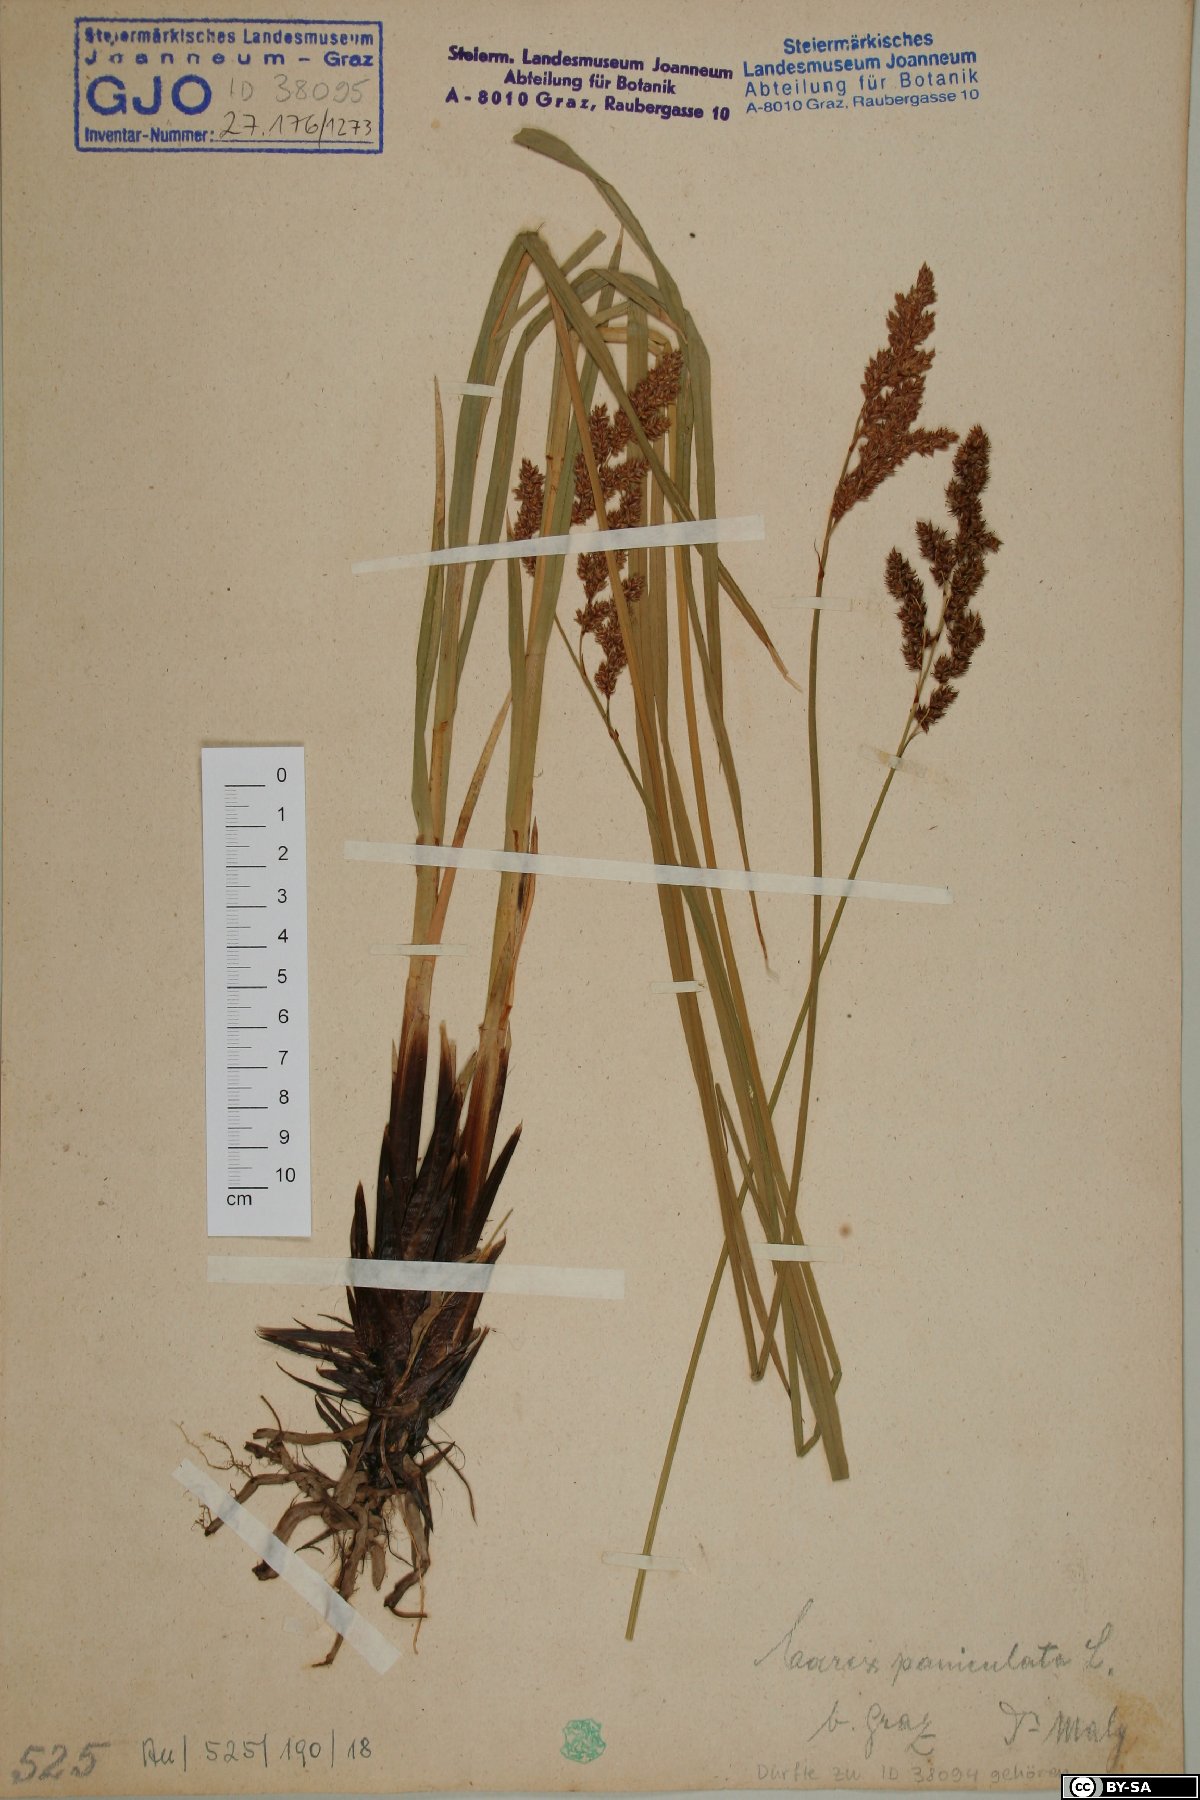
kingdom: Plantae
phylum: Tracheophyta
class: Liliopsida
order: Poales
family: Cyperaceae
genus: Carex
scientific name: Carex paniculata
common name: Greater tussock-sedge
